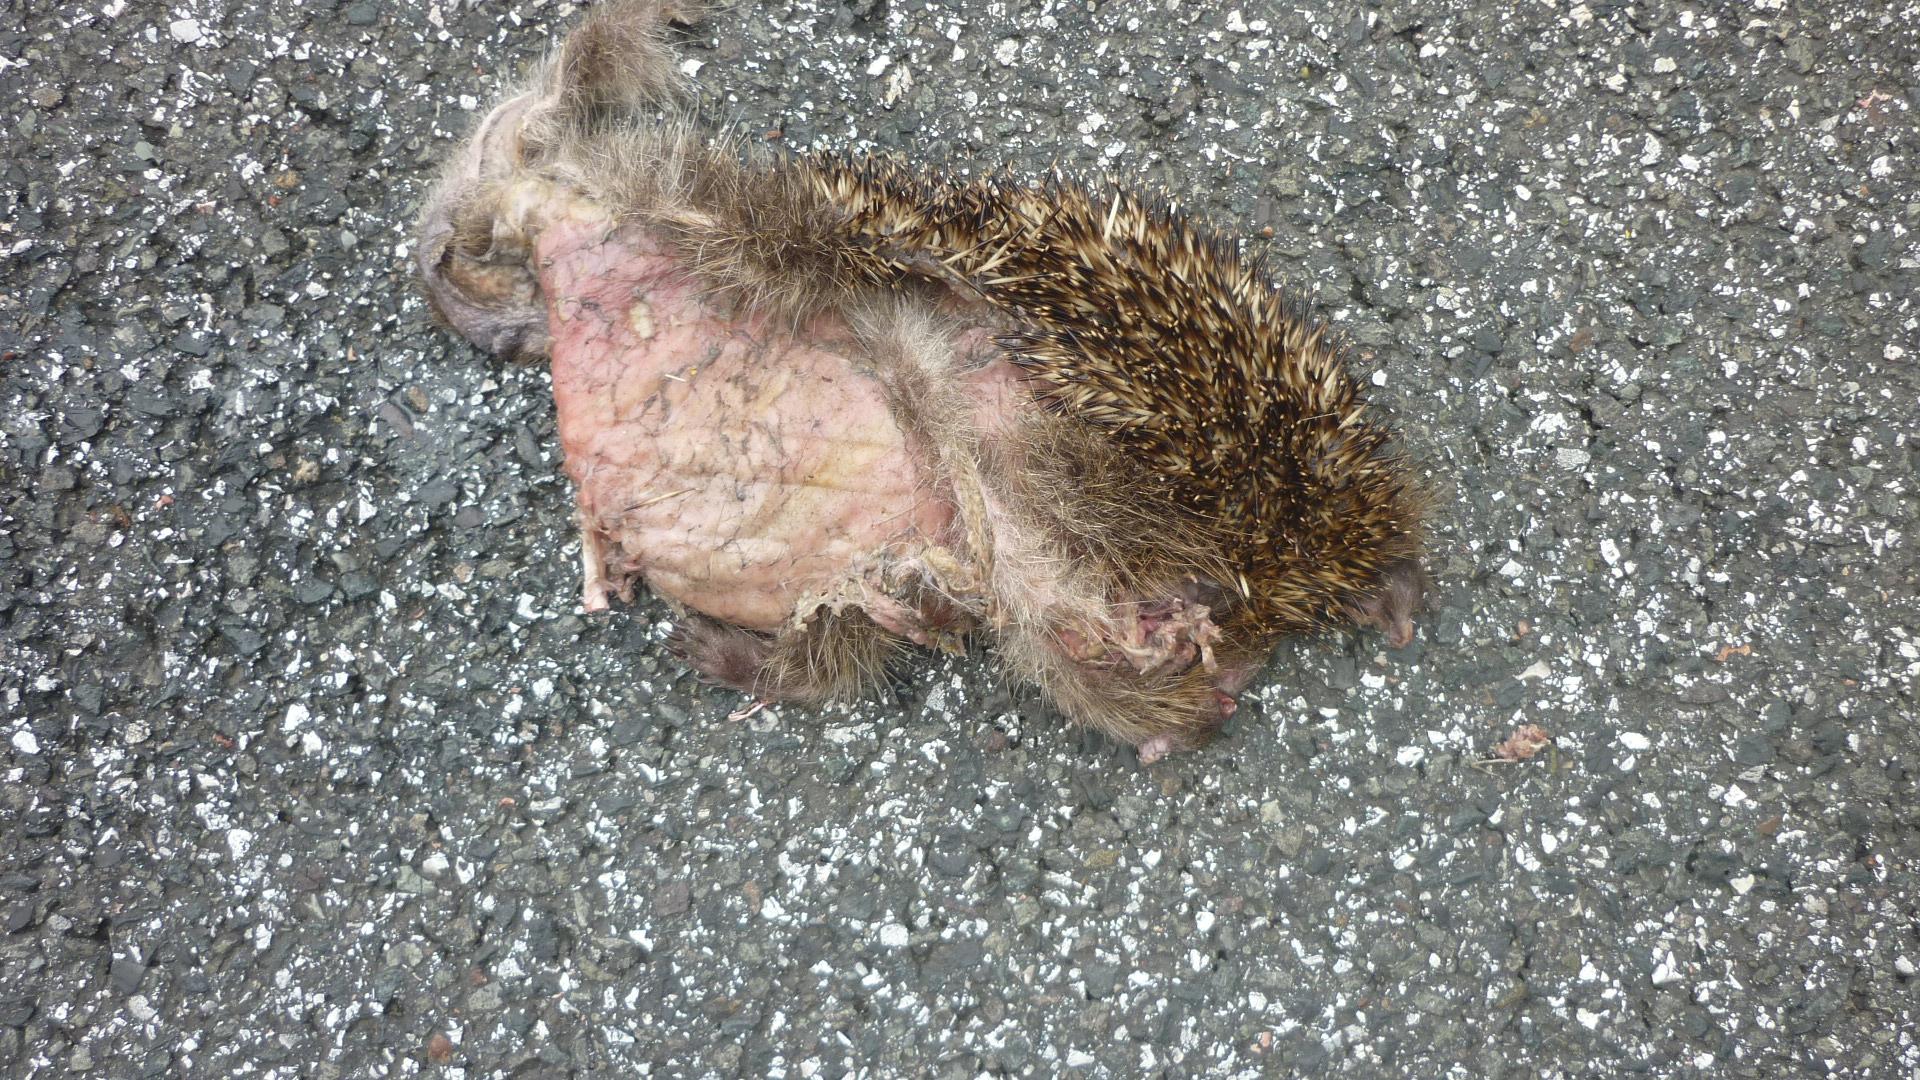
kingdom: Animalia
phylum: Chordata
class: Mammalia
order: Erinaceomorpha
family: Erinaceidae
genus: Erinaceus
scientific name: Erinaceus
